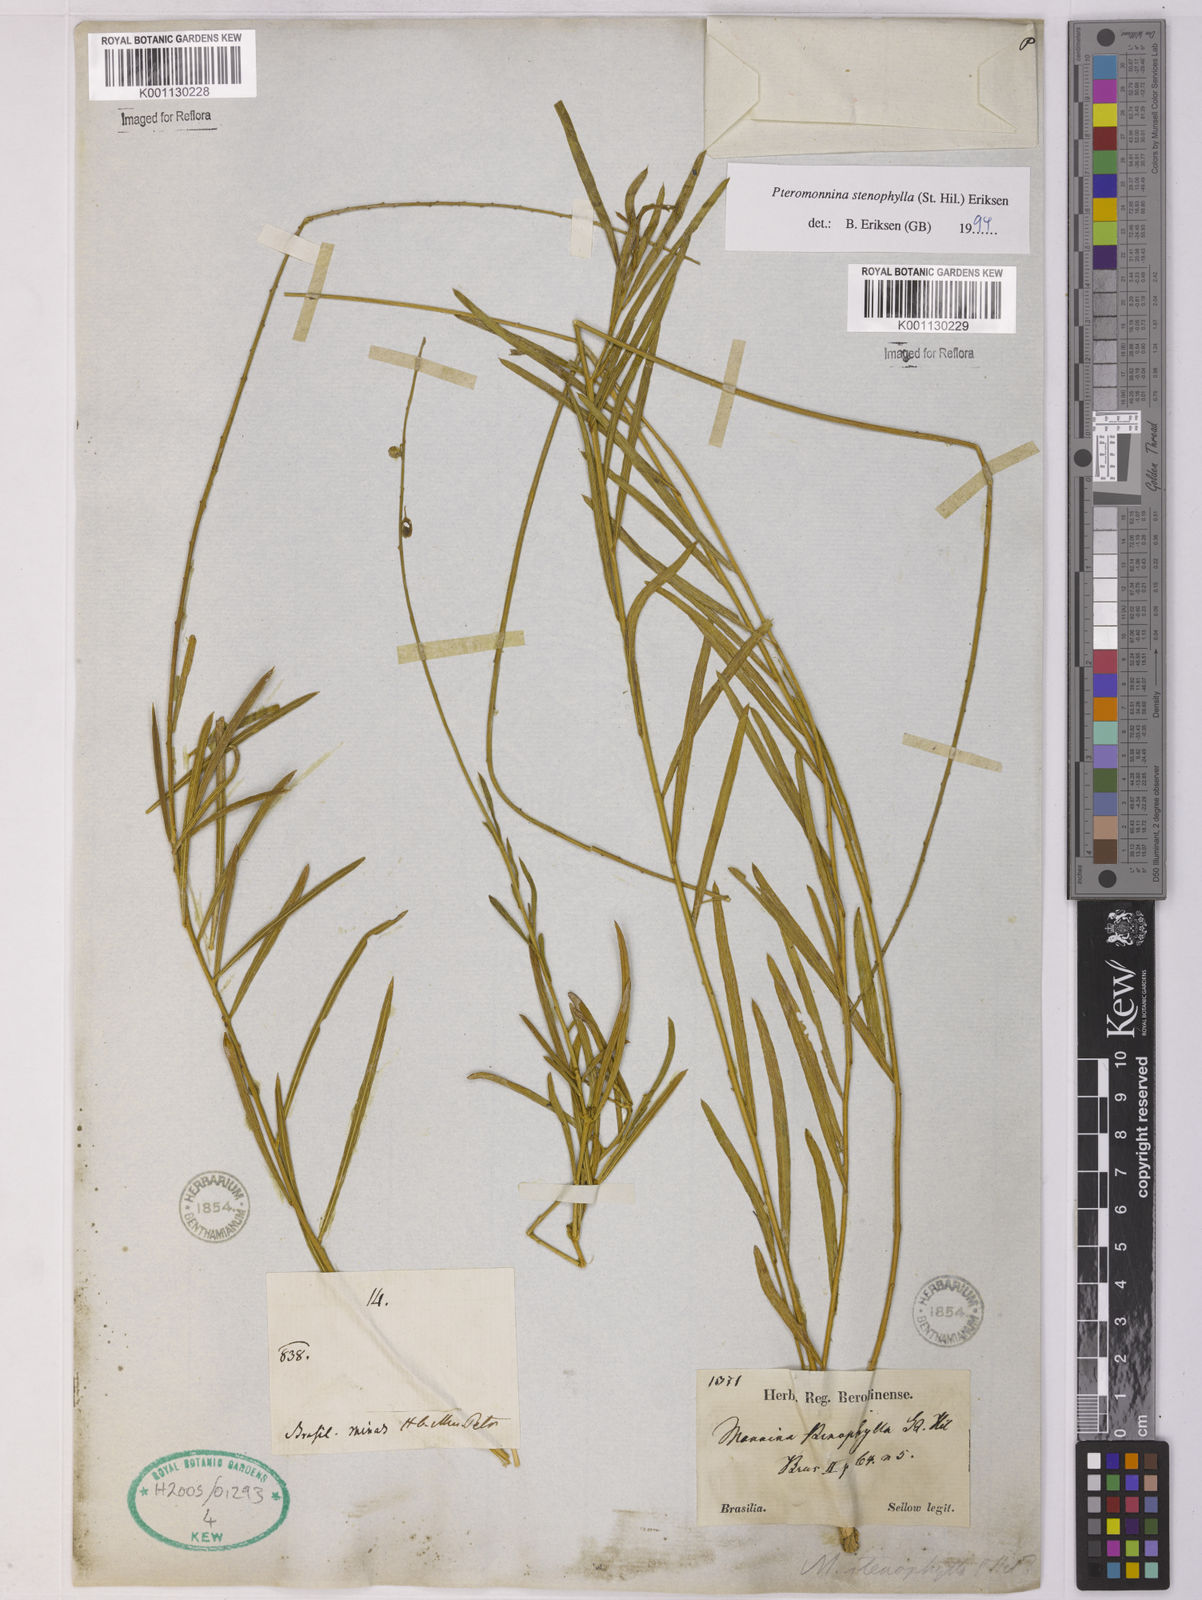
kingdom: Plantae
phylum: Tracheophyta
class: Magnoliopsida
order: Fabales
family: Polygalaceae
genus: Monnina
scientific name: Monnina stenophylla
